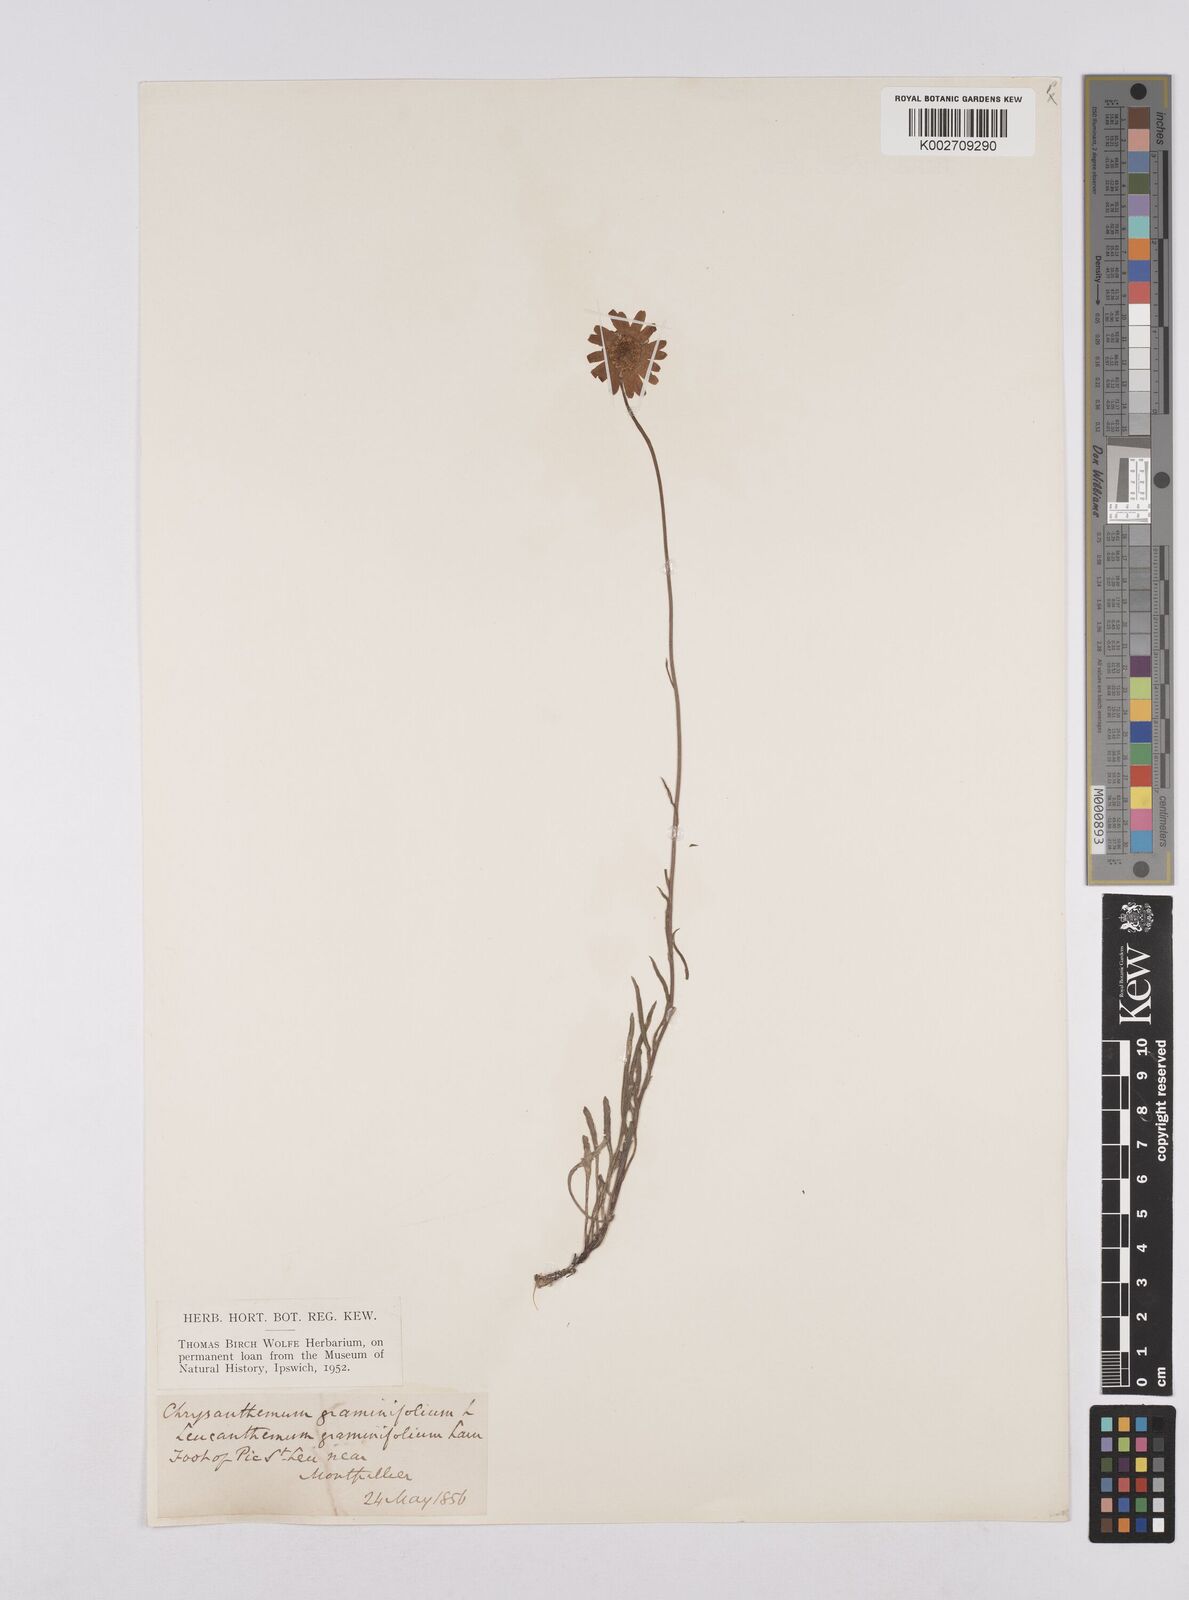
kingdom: Plantae
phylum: Tracheophyta
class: Magnoliopsida
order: Asterales
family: Asteraceae
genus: Leucanthemum
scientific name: Leucanthemum chloroticum
